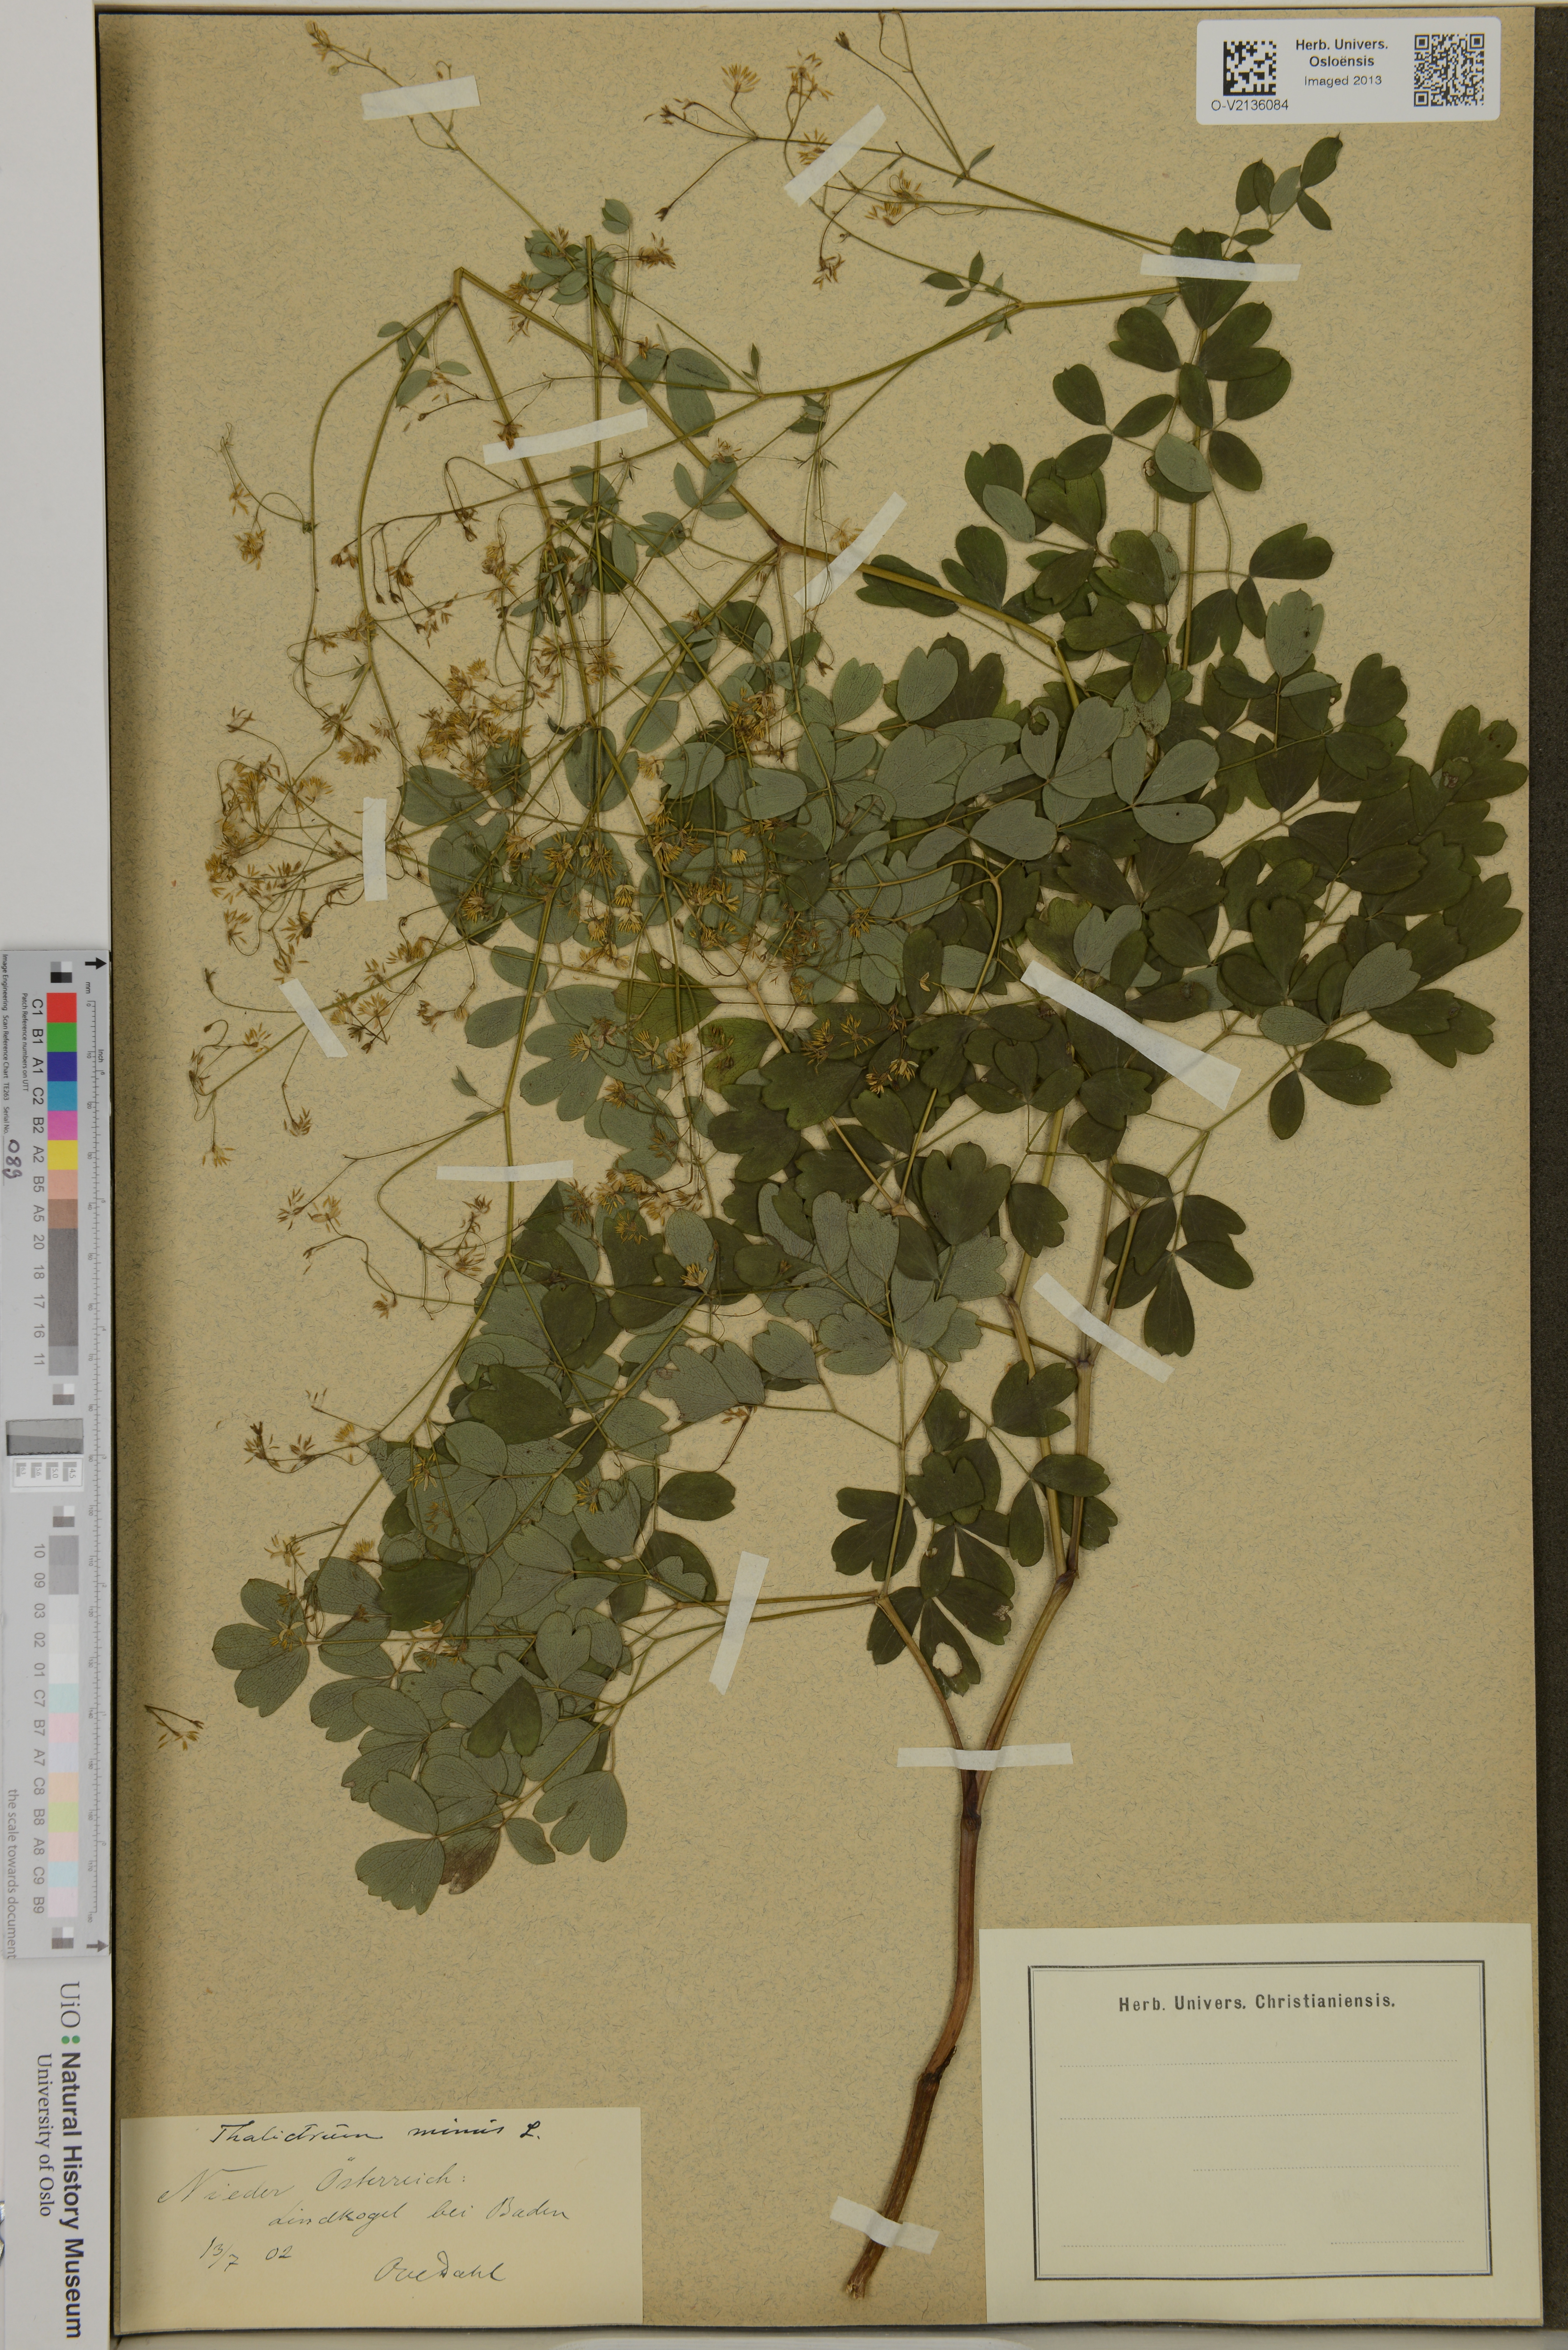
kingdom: Plantae
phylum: Tracheophyta
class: Magnoliopsida
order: Ranunculales
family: Ranunculaceae
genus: Thalictrum
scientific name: Thalictrum minus
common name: Lesser meadow-rue
